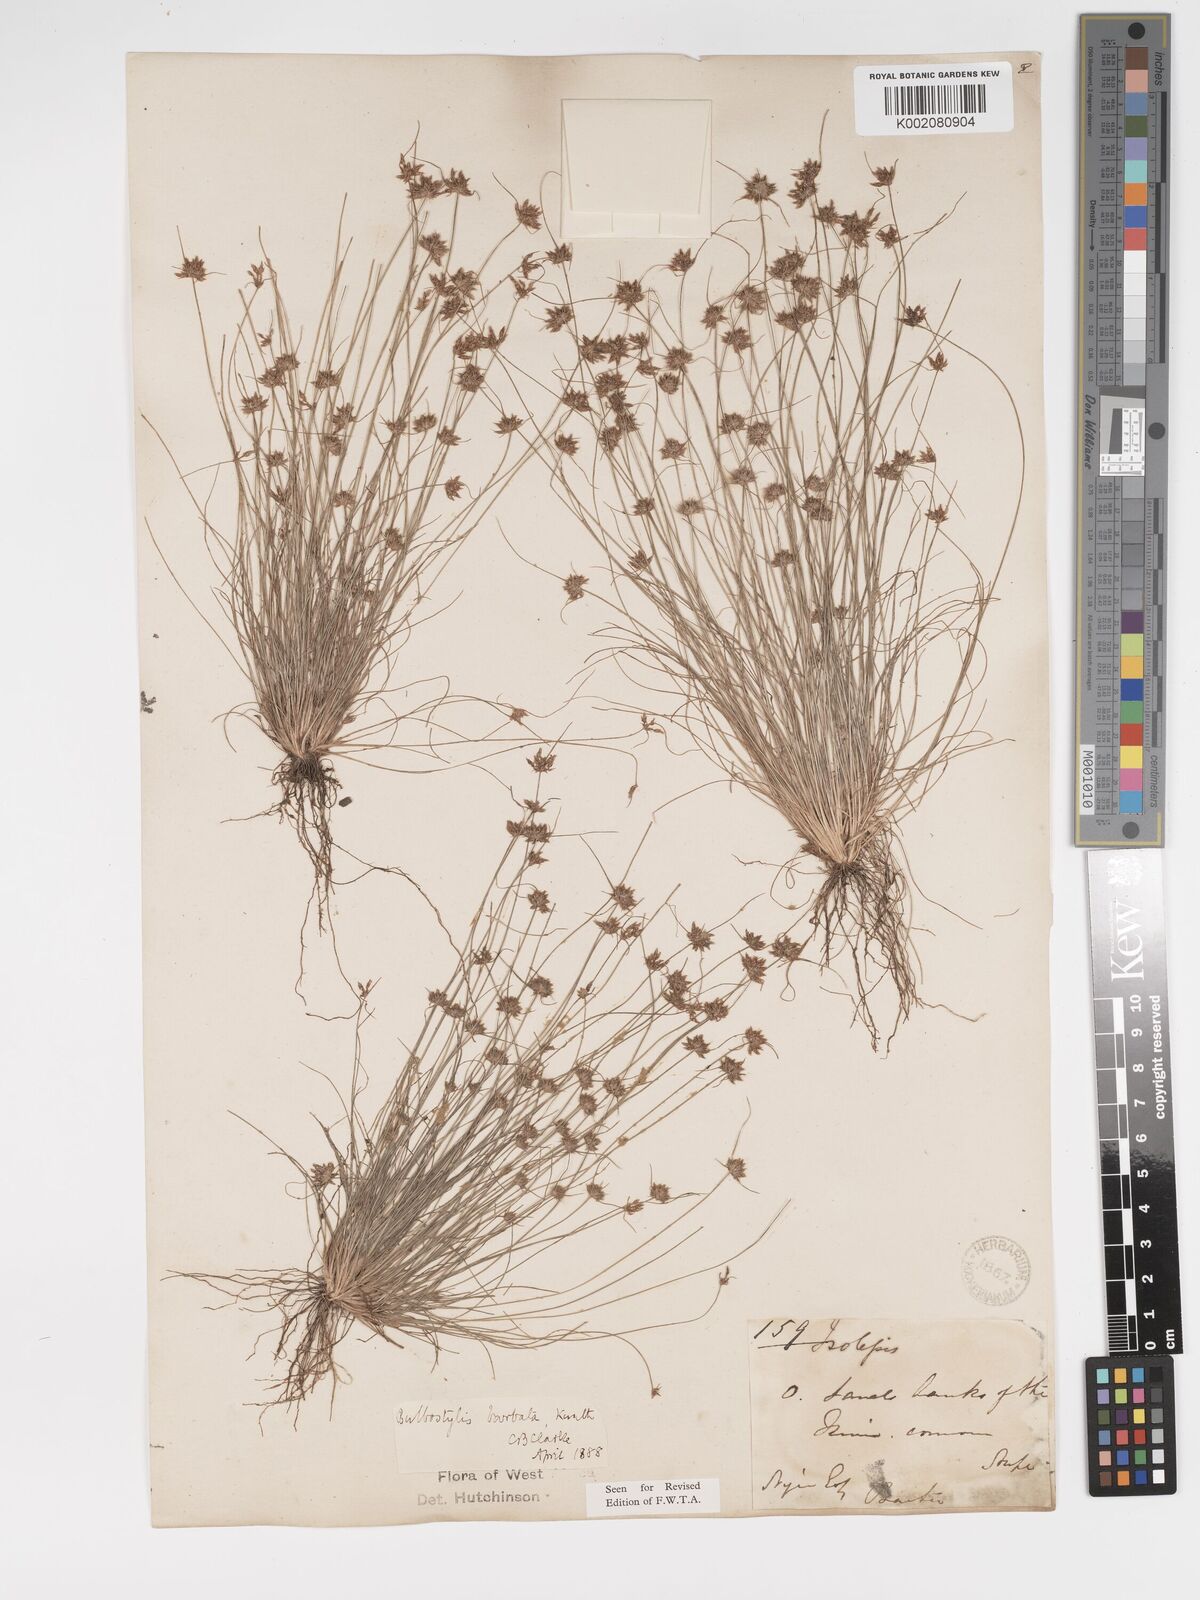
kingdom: Plantae
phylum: Tracheophyta
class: Liliopsida
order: Poales
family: Cyperaceae
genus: Bulbostylis
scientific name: Bulbostylis barbata
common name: Watergrass
